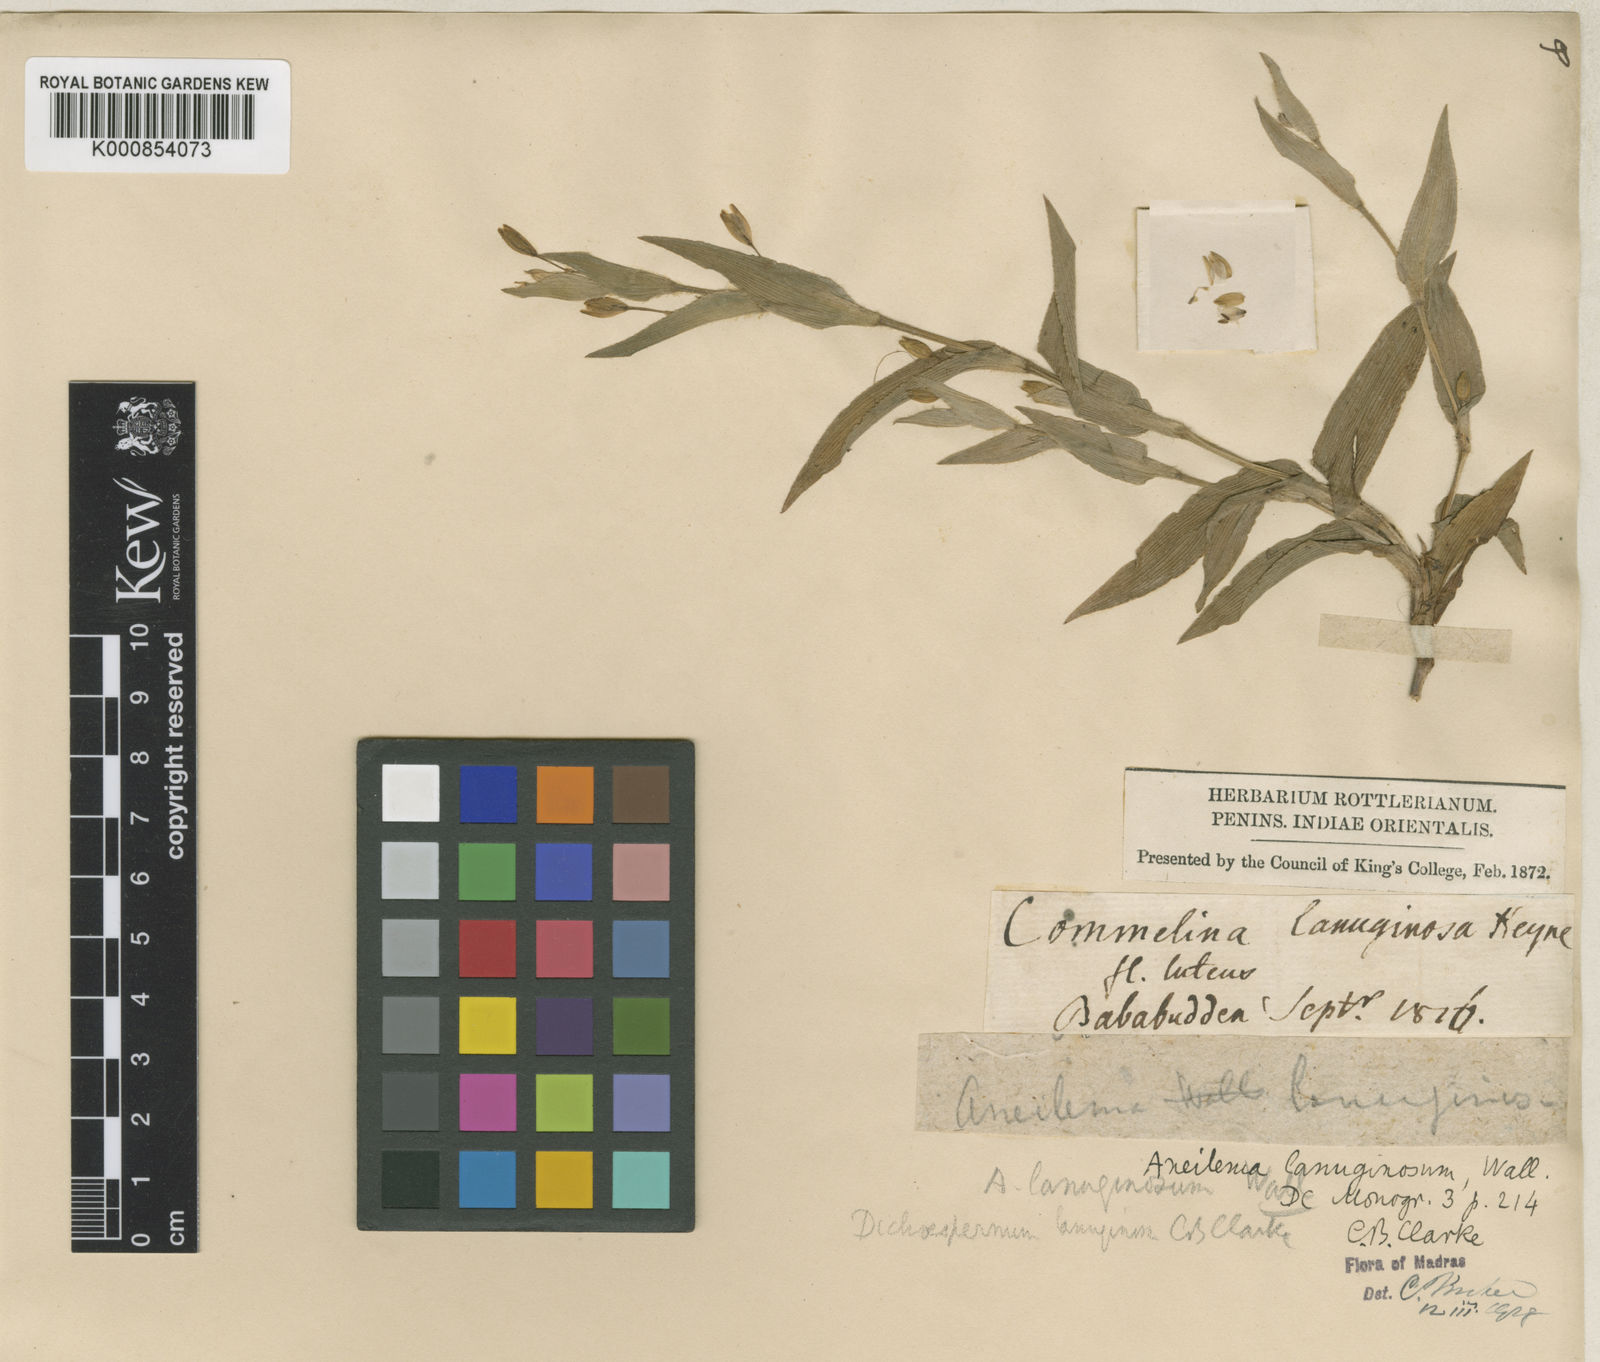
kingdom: Plantae
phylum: Tracheophyta
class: Liliopsida
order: Commelinales
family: Commelinaceae
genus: Murdannia
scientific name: Murdannia
